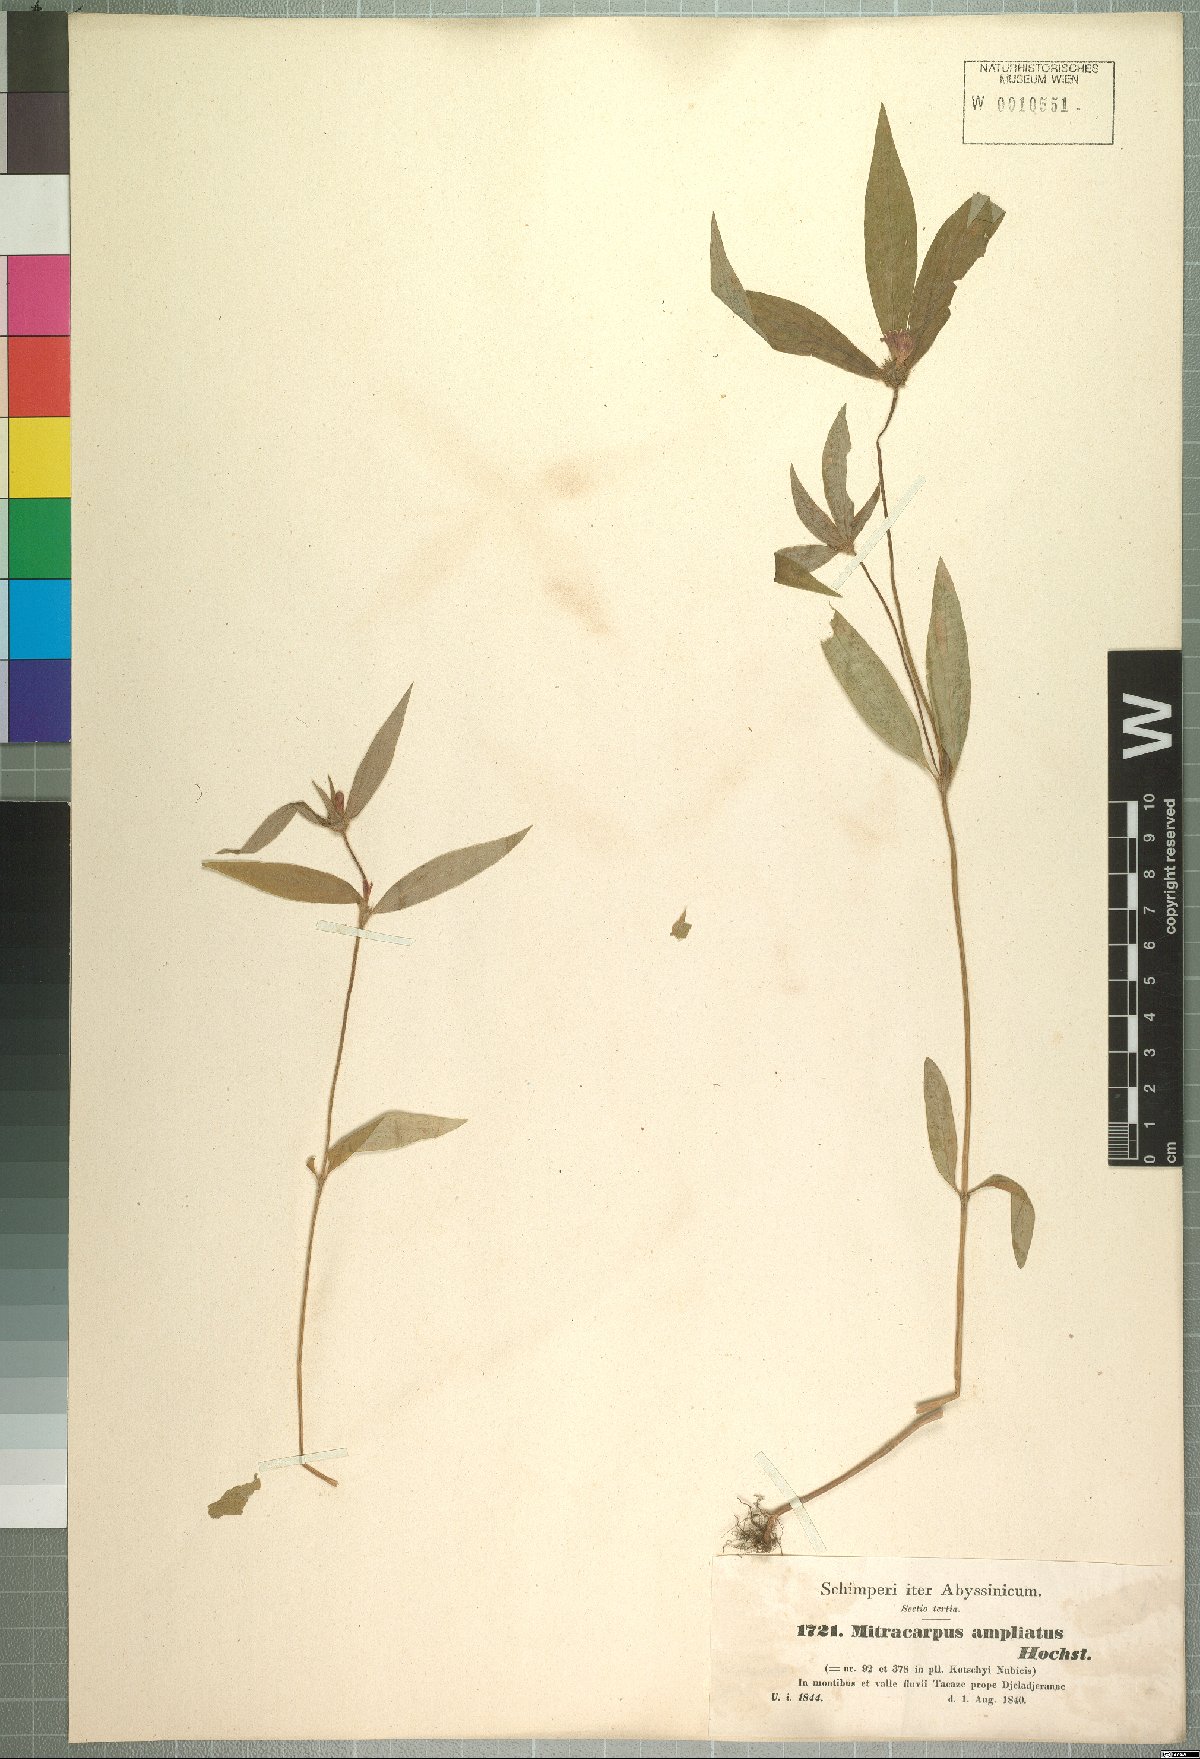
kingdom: Plantae
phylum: Tracheophyta
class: Magnoliopsida
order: Gentianales
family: Rubiaceae
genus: Spermacoce
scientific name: Spermacoce sphaerostigma
